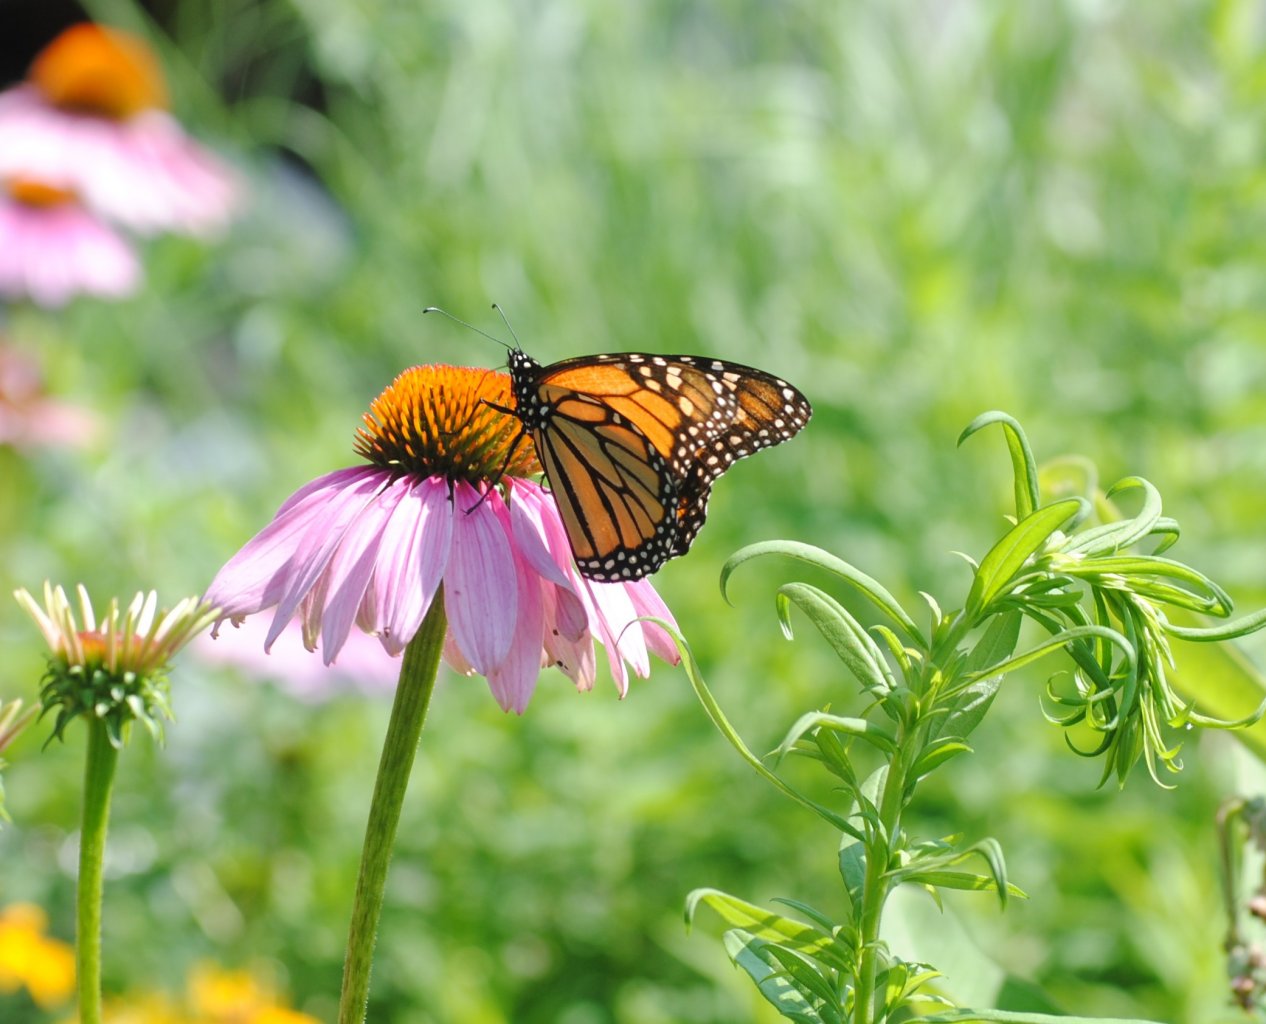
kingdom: Animalia
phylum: Arthropoda
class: Insecta
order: Lepidoptera
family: Nymphalidae
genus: Danaus
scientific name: Danaus plexippus
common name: Monarch
